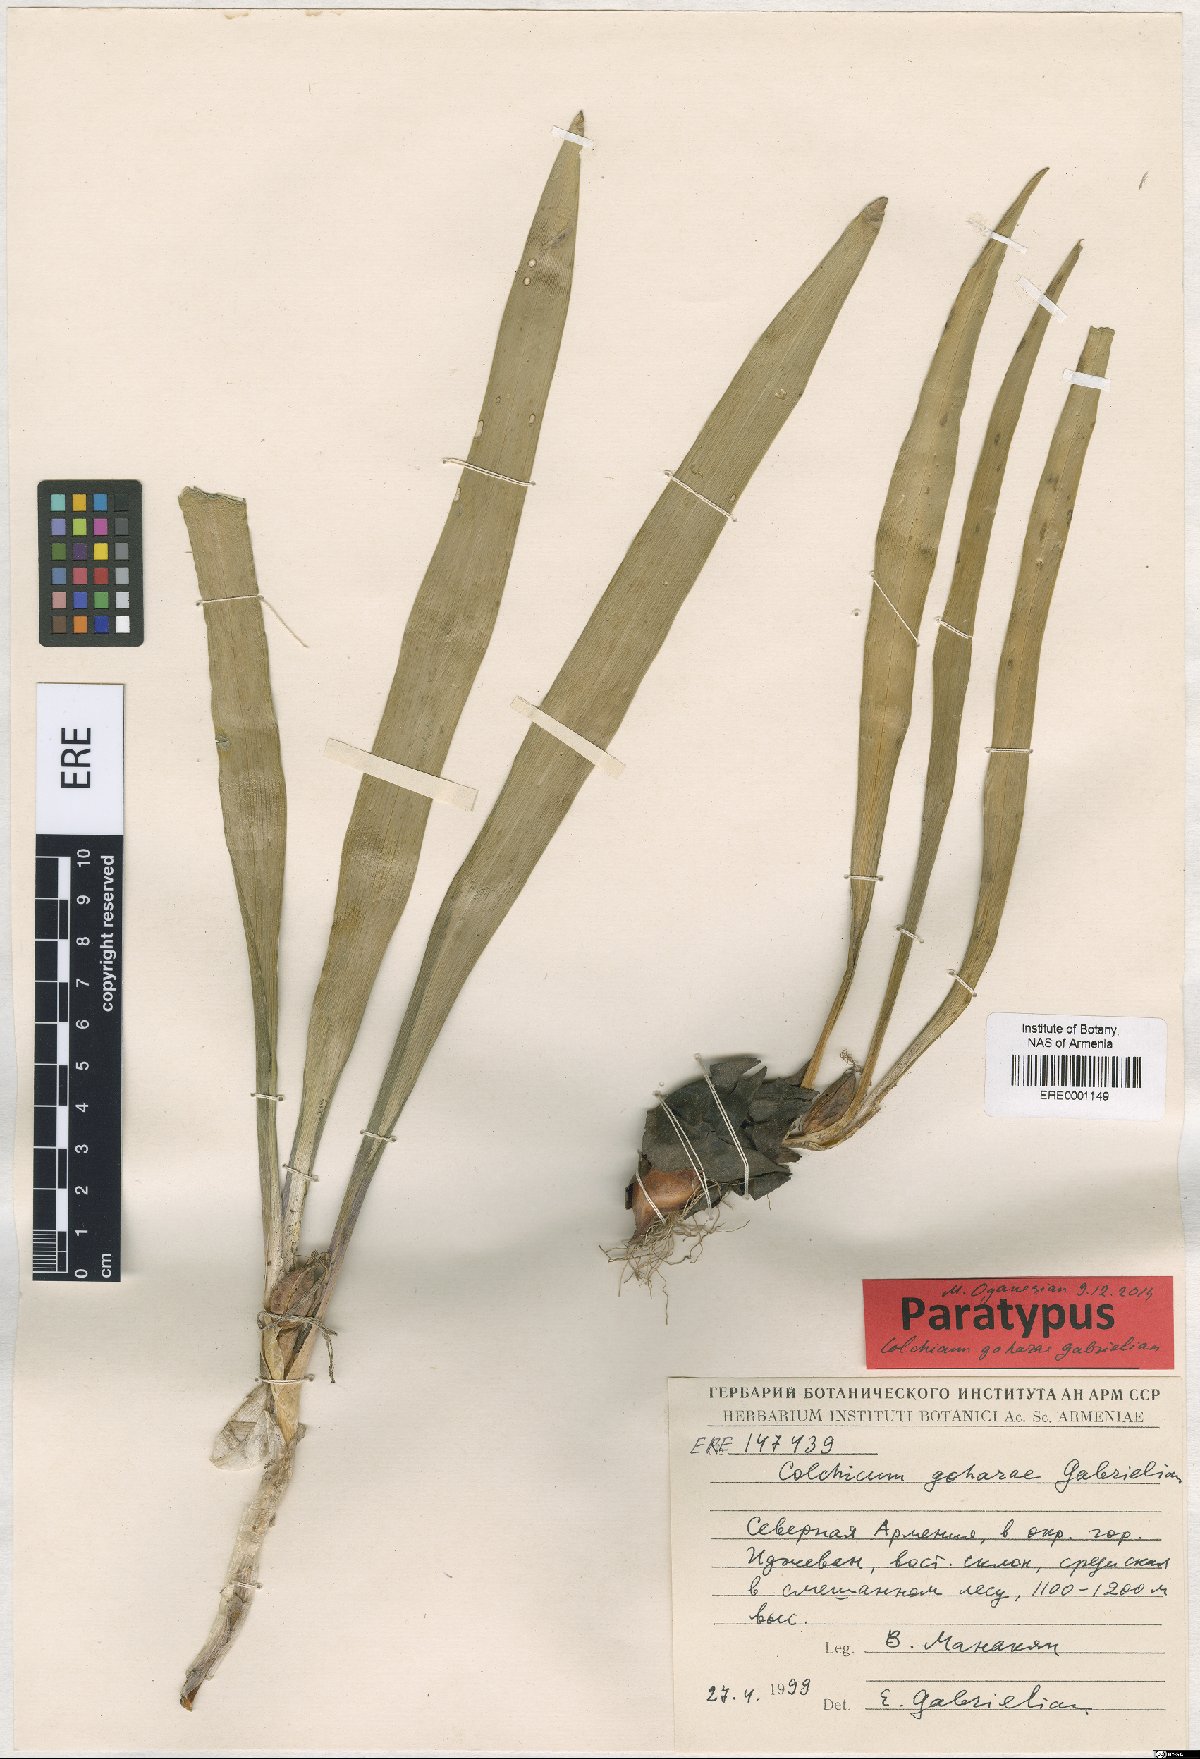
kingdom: Plantae
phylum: Tracheophyta
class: Liliopsida
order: Liliales
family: Colchicaceae
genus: Colchicum
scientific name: Colchicum szovitsii
